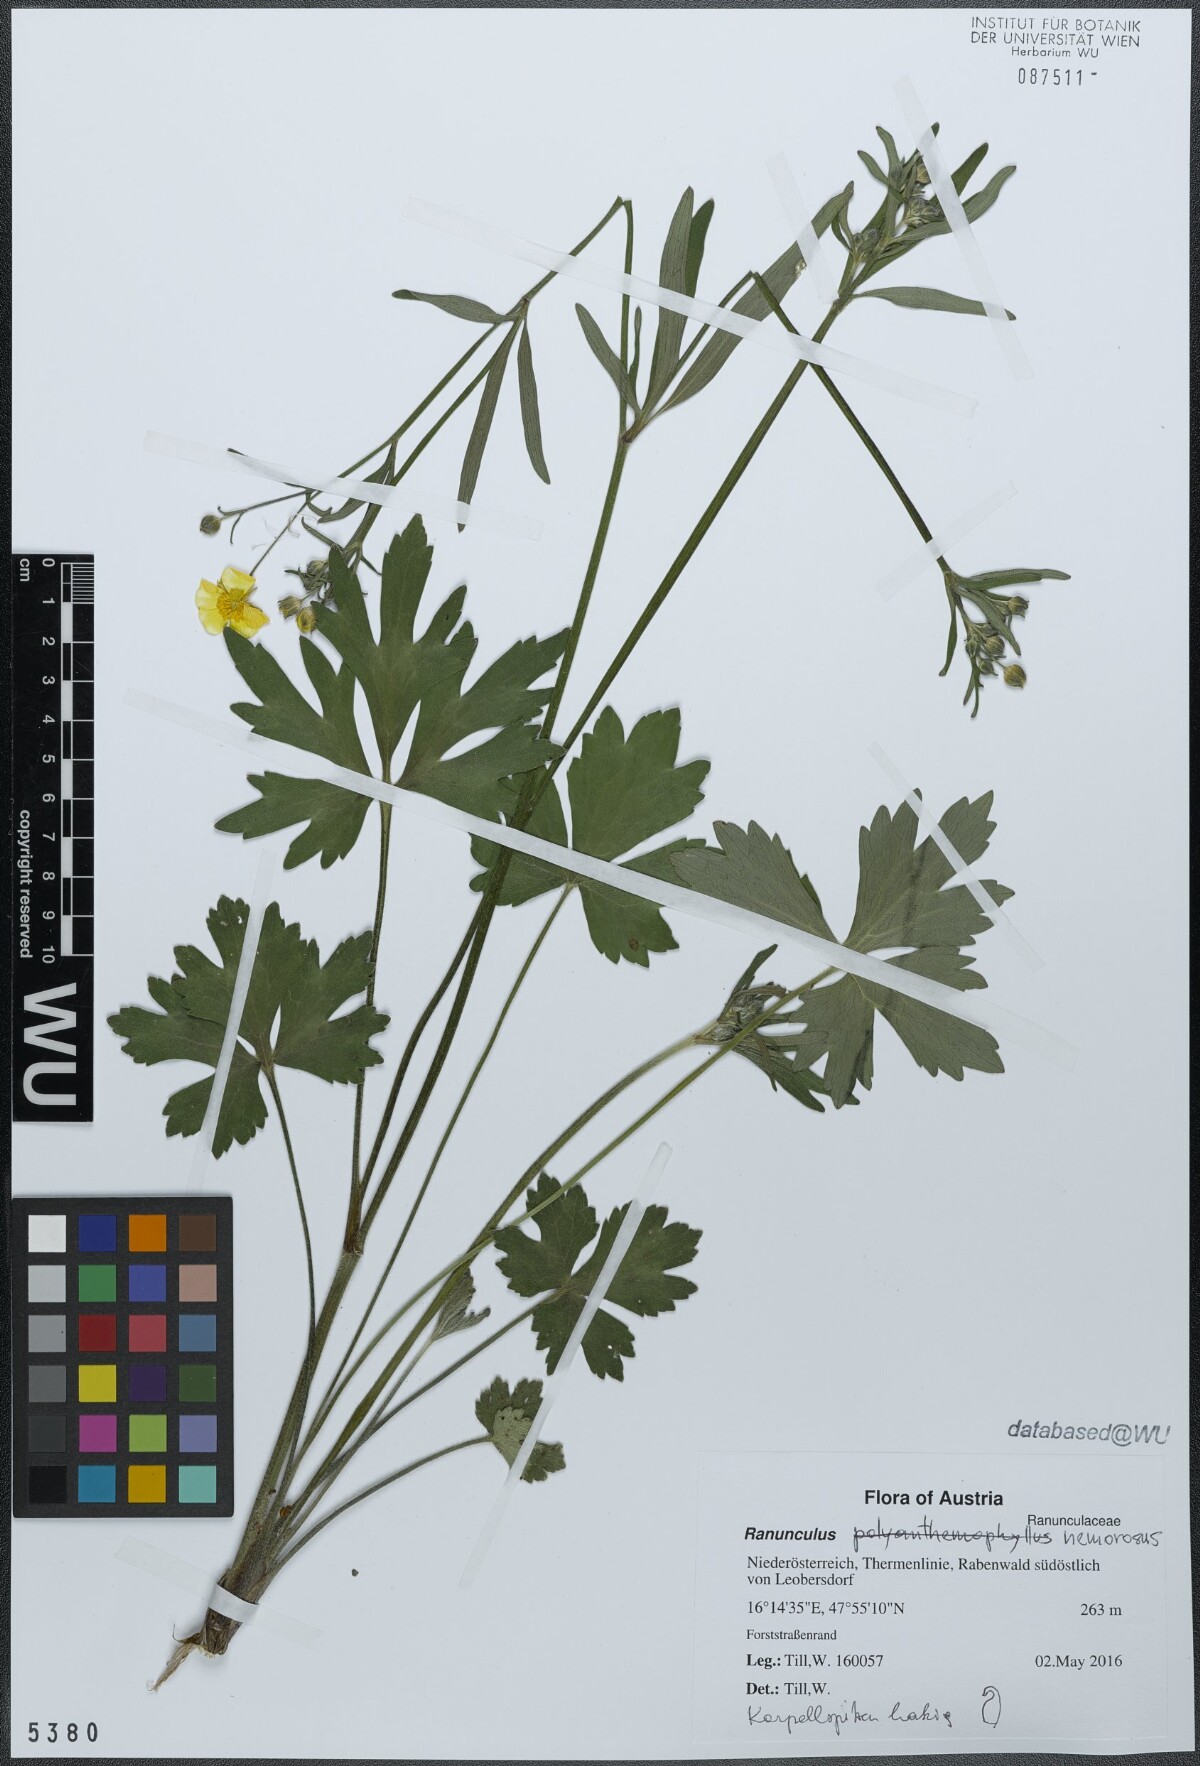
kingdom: Plantae
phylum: Tracheophyta
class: Magnoliopsida
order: Ranunculales
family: Ranunculaceae
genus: Ranunculus
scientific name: Ranunculus polyanthemos
